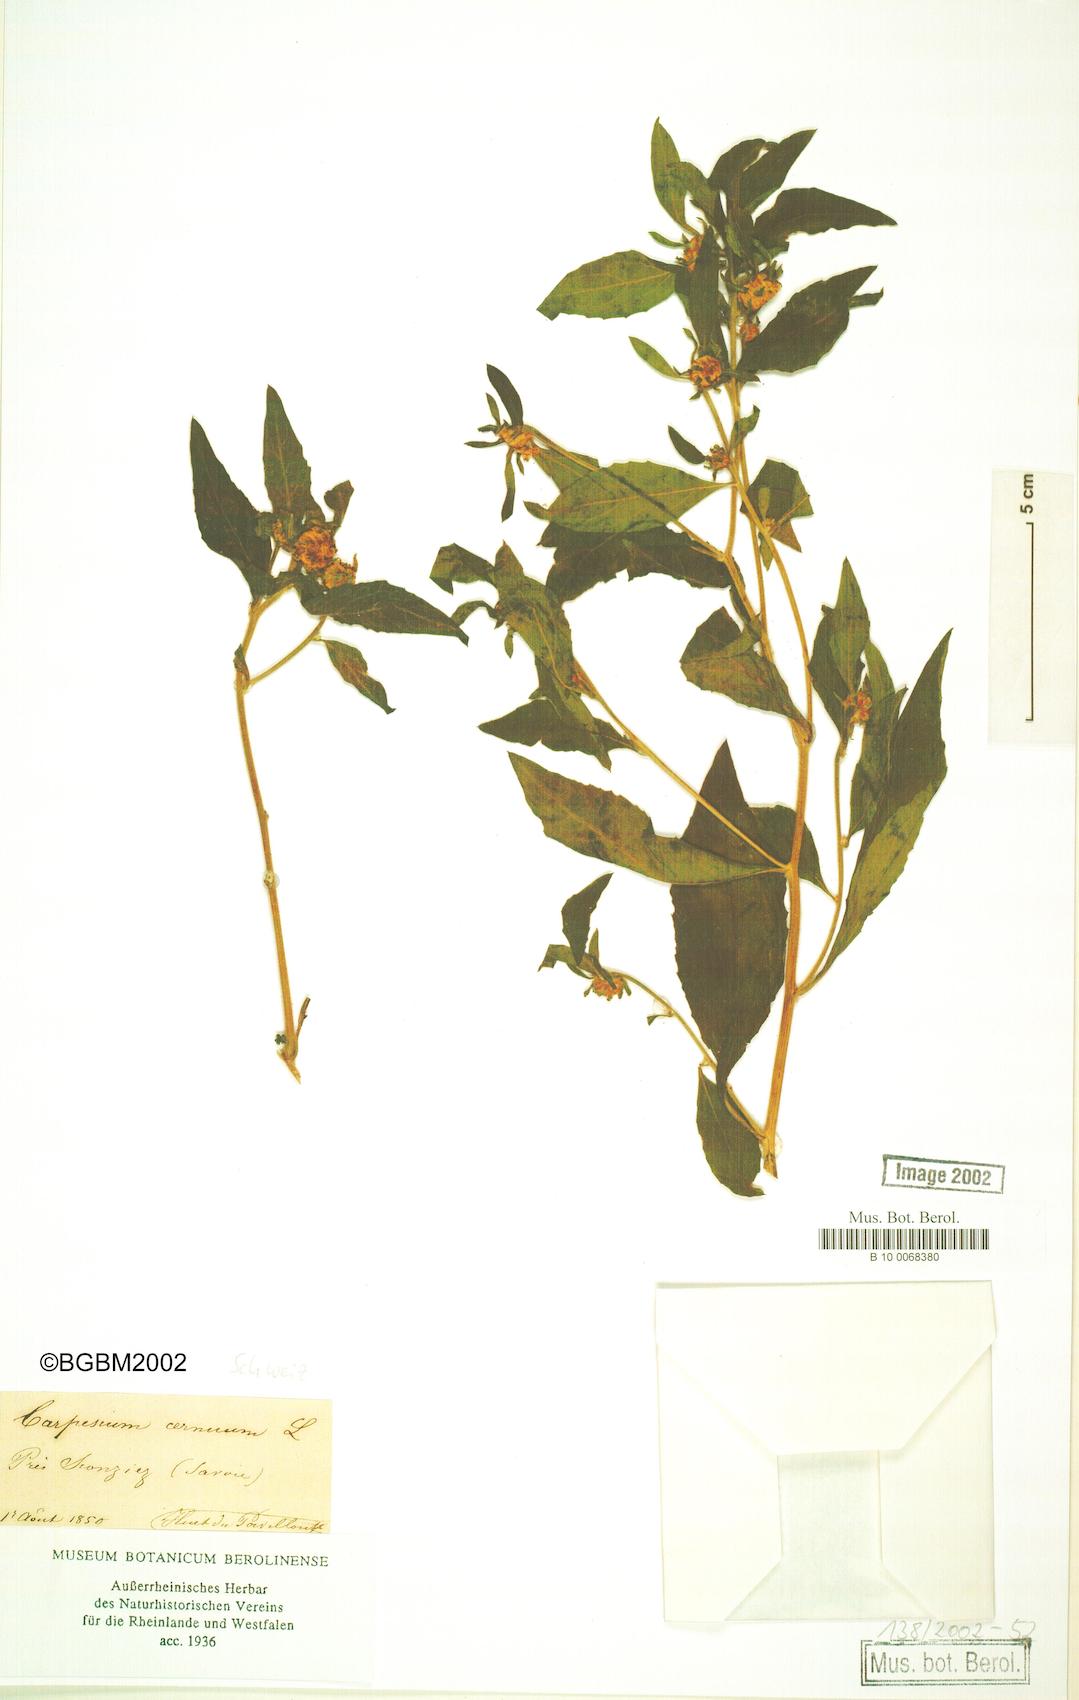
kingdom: Plantae
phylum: Tracheophyta
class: Magnoliopsida
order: Asterales
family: Asteraceae
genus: Carpesium
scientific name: Carpesium cernuum
